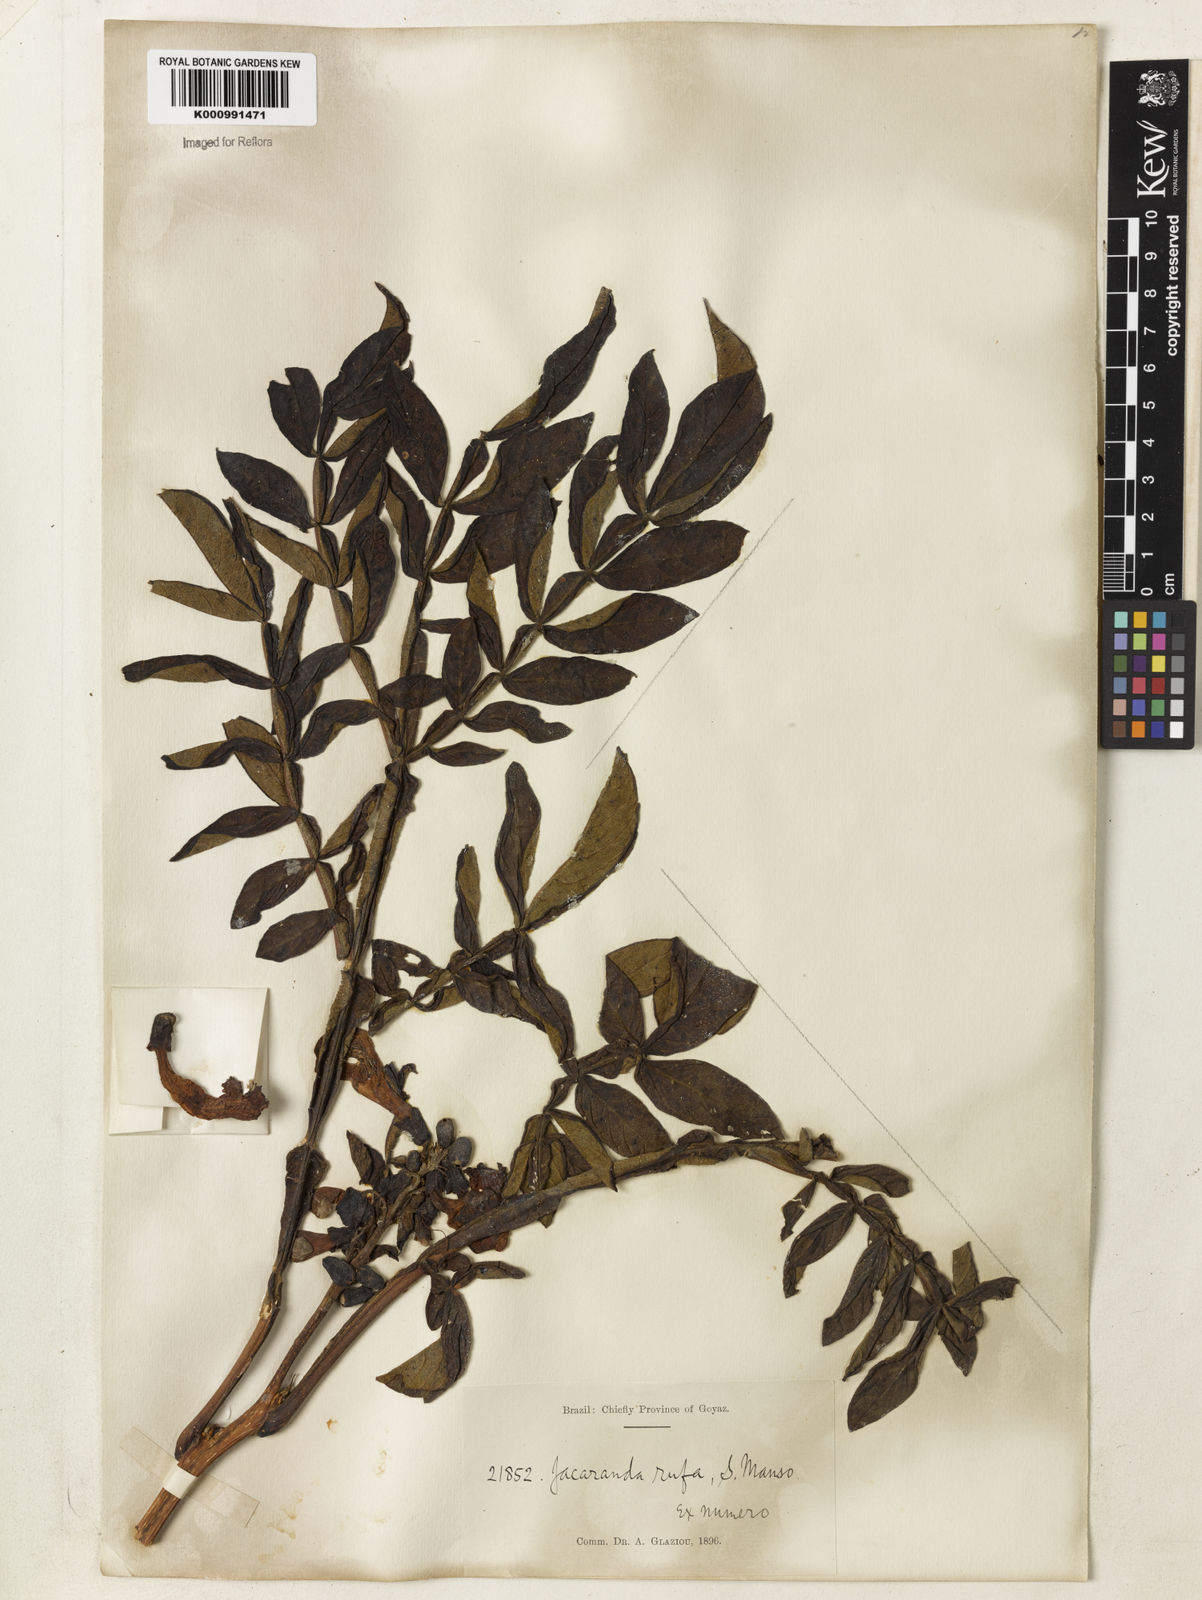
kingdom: Plantae
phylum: Tracheophyta
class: Magnoliopsida
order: Lamiales
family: Bignoniaceae
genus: Jacaranda
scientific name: Jacaranda rufa
